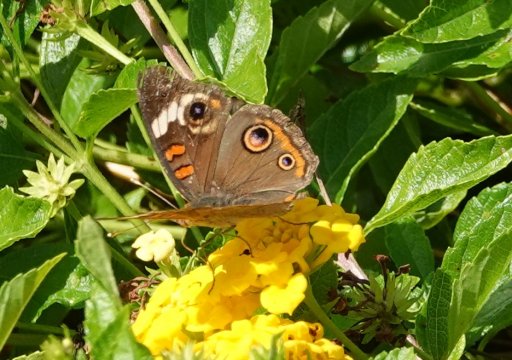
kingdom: Animalia
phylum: Arthropoda
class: Insecta
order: Lepidoptera
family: Nymphalidae
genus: Junonia
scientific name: Junonia coenia
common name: Common Buckeye
